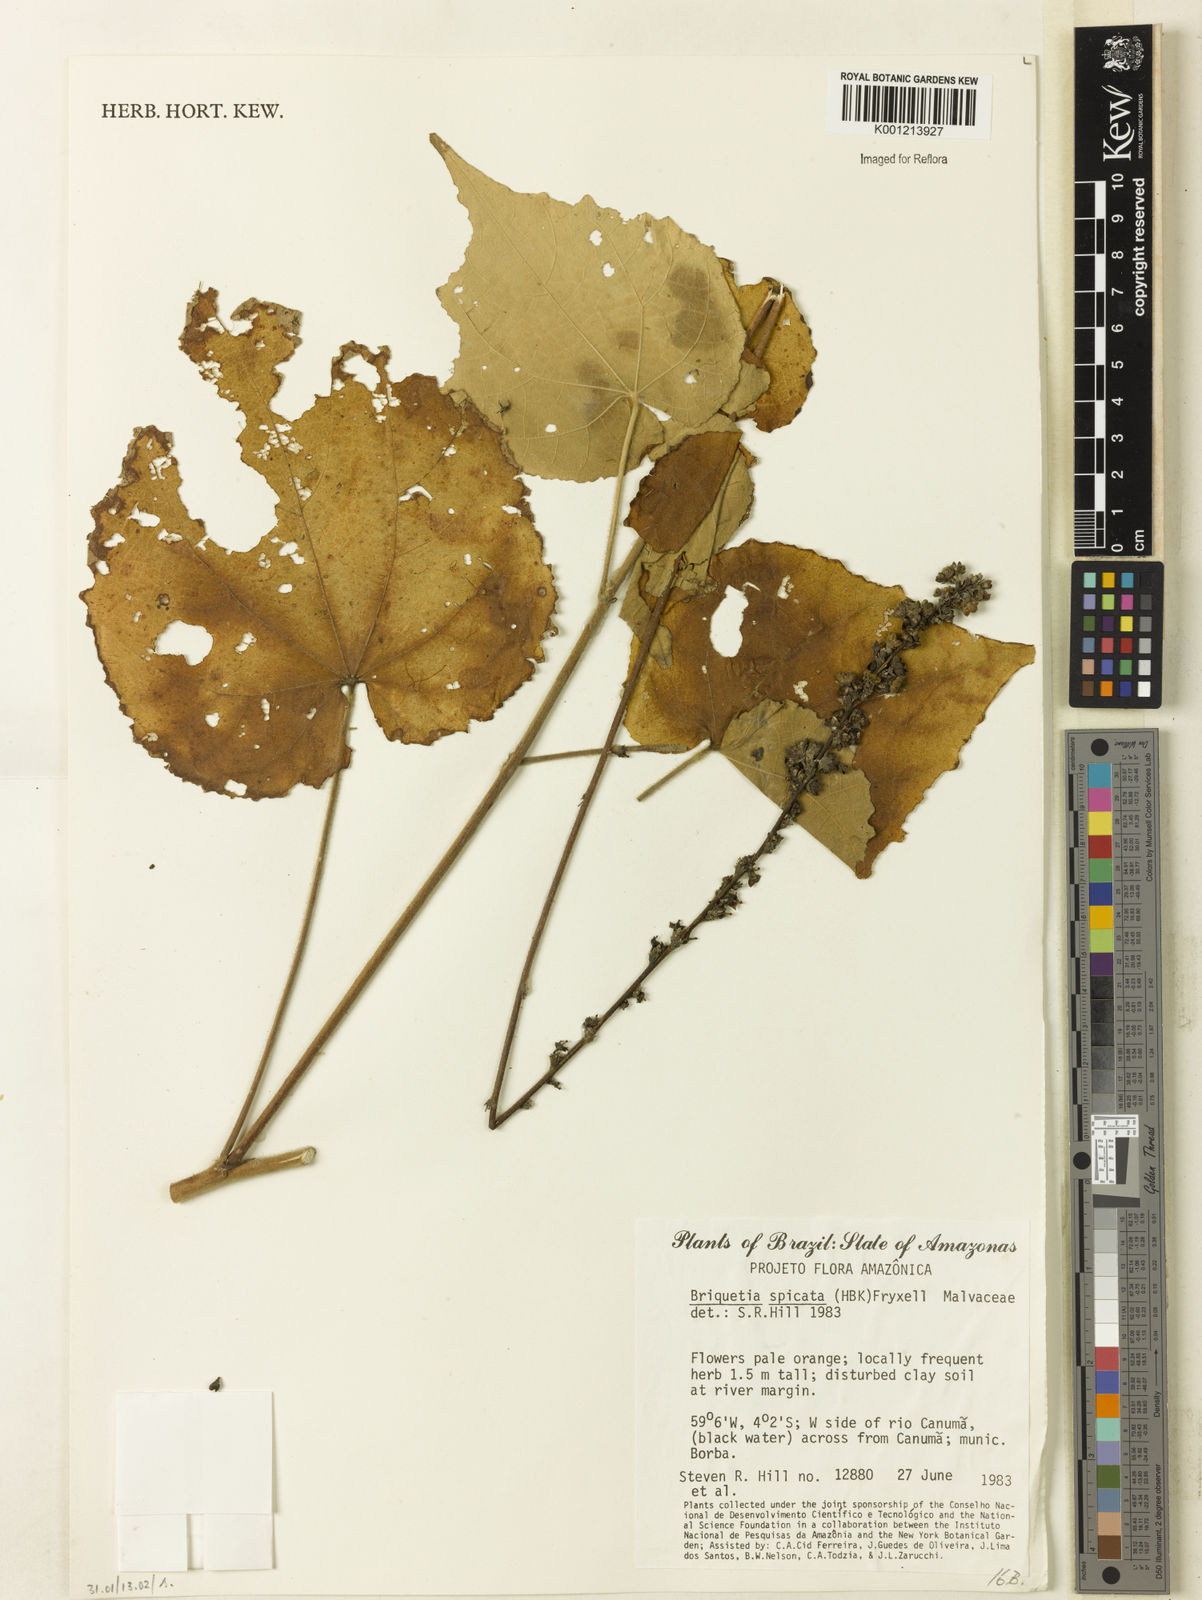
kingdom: Plantae
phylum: Tracheophyta
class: Magnoliopsida
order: Malvales
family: Malvaceae
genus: Allobriquetia
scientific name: Allobriquetia spicata
